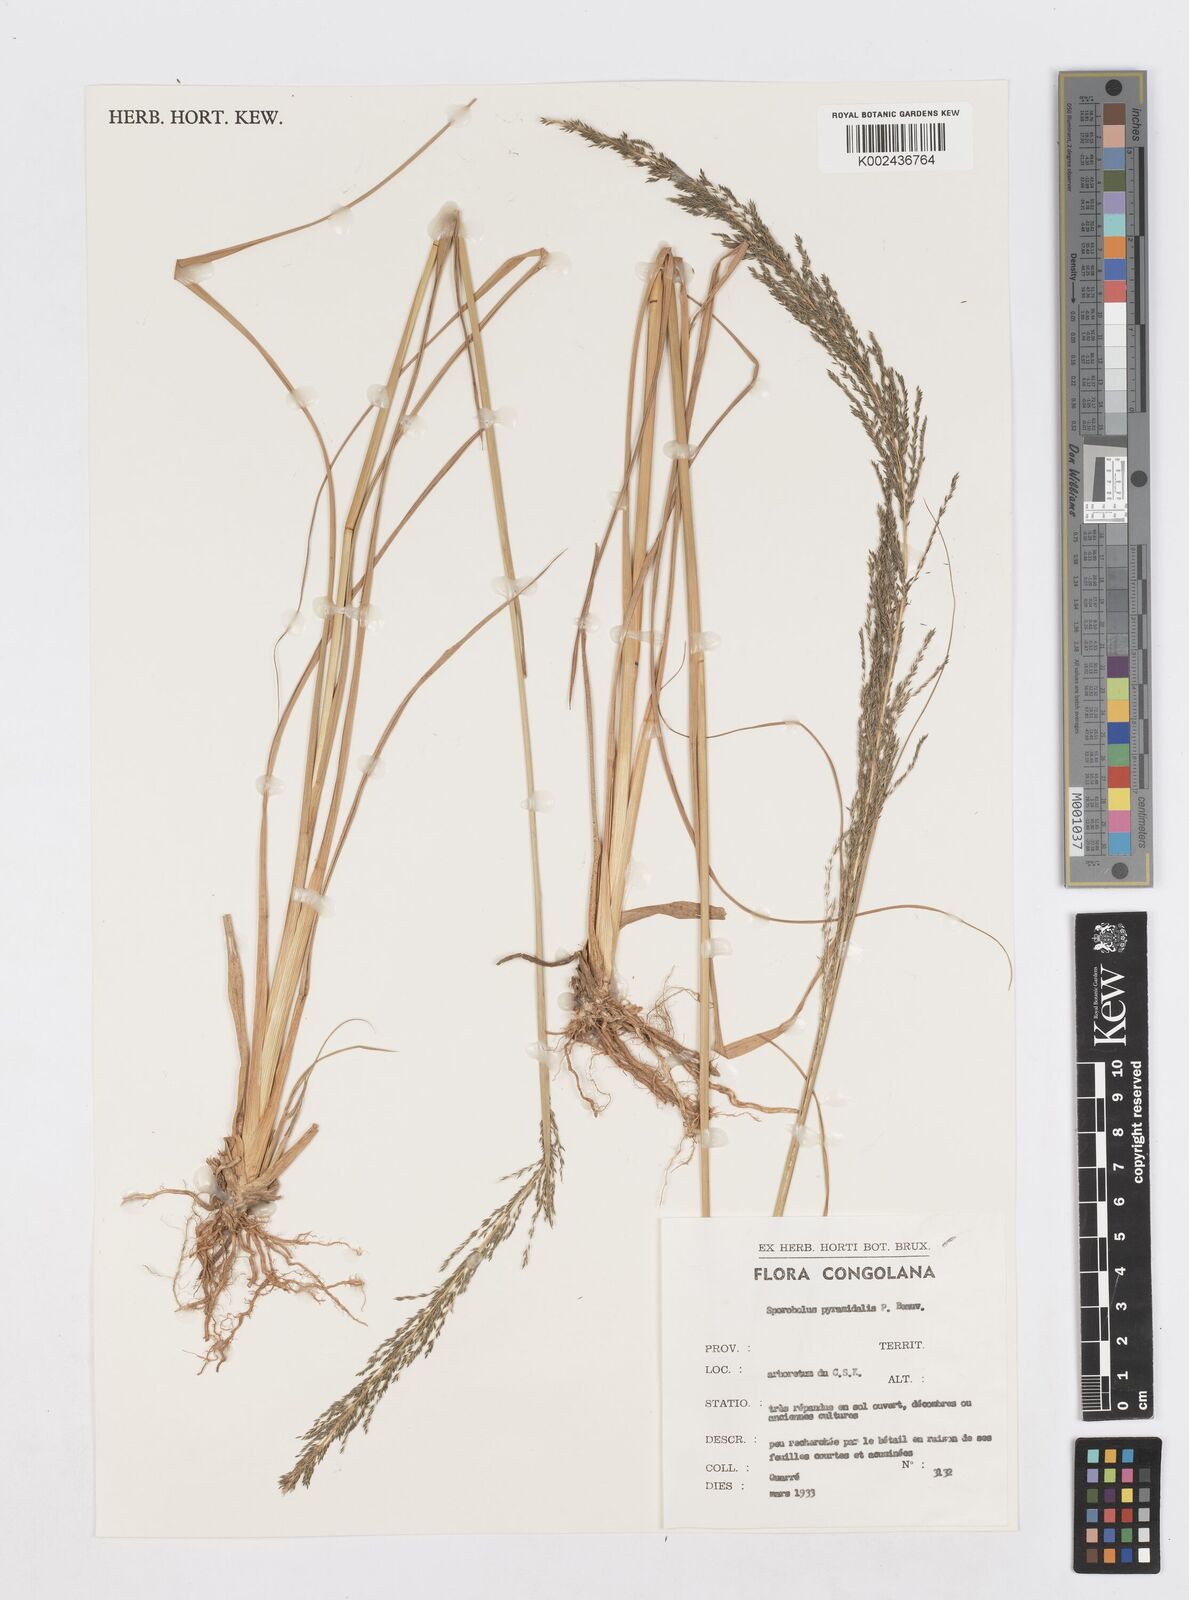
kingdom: Plantae
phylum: Tracheophyta
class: Liliopsida
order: Poales
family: Poaceae
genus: Sporobolus
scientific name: Sporobolus pyramidalis
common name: West indian dropseed
